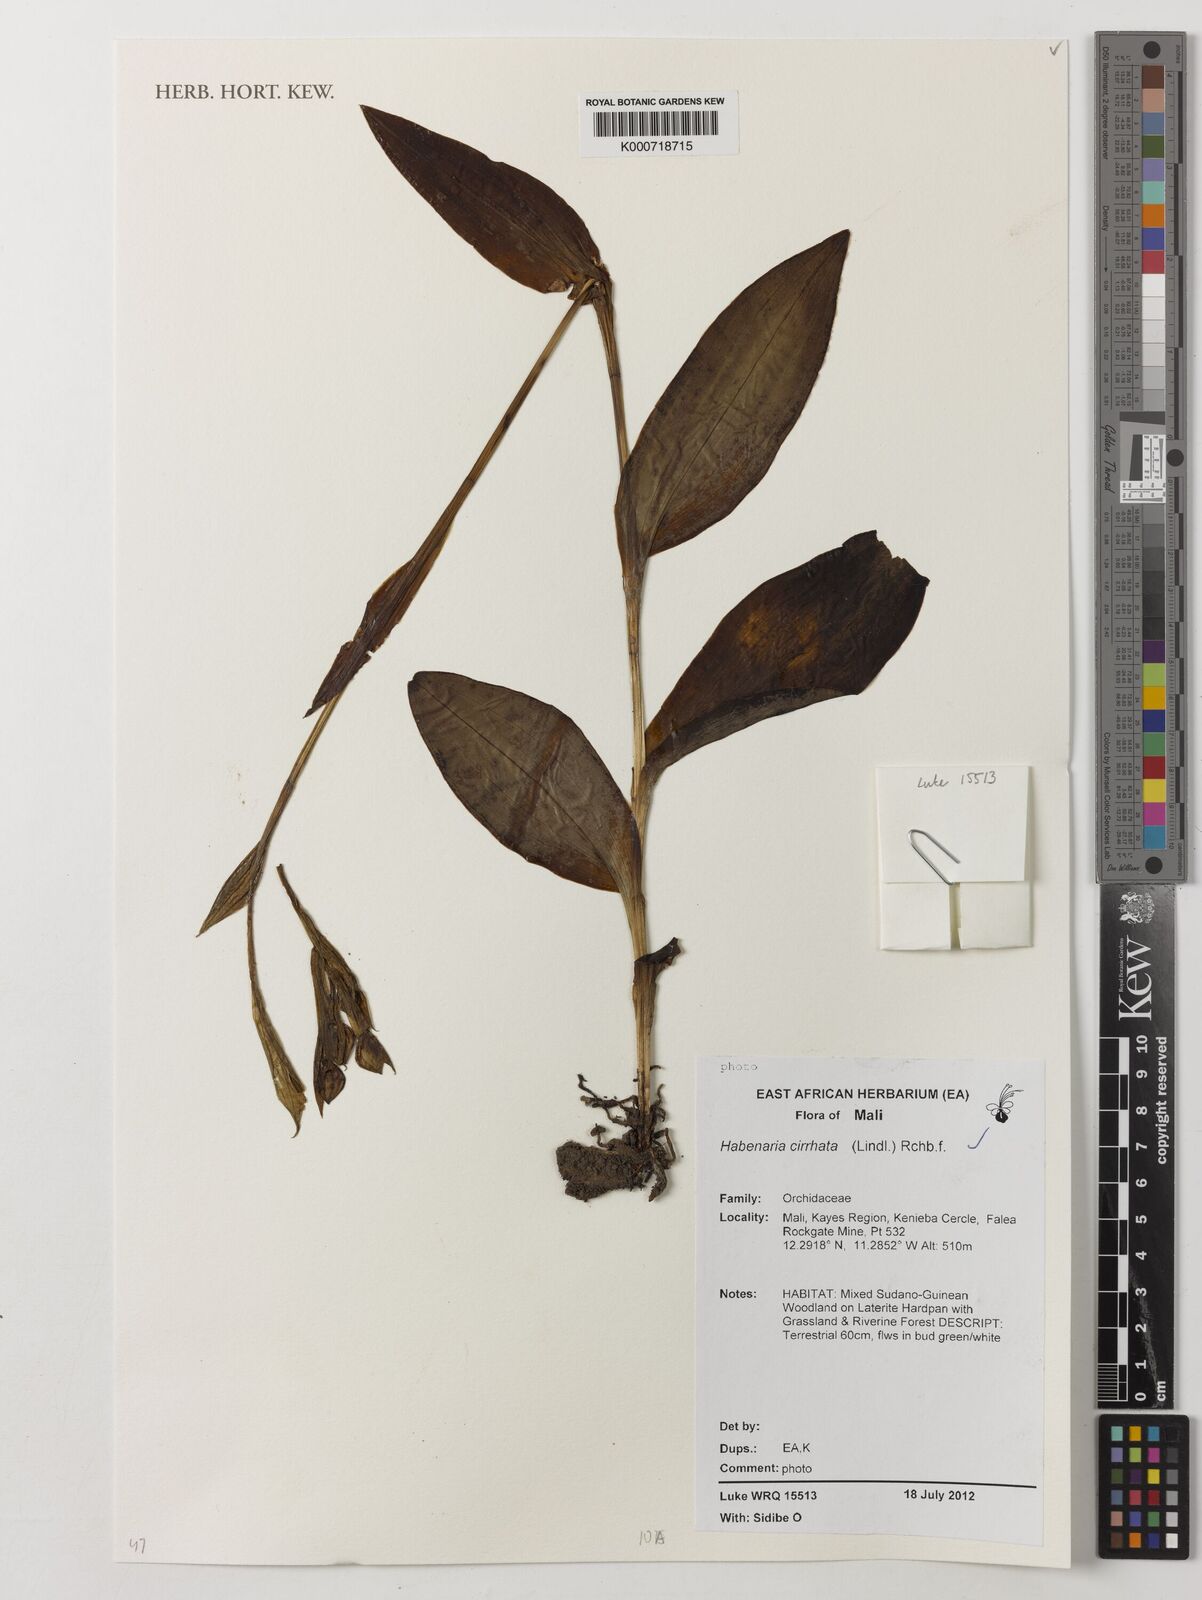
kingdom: Plantae
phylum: Tracheophyta
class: Liliopsida
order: Asparagales
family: Orchidaceae
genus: Habenaria
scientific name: Habenaria cirrhata
